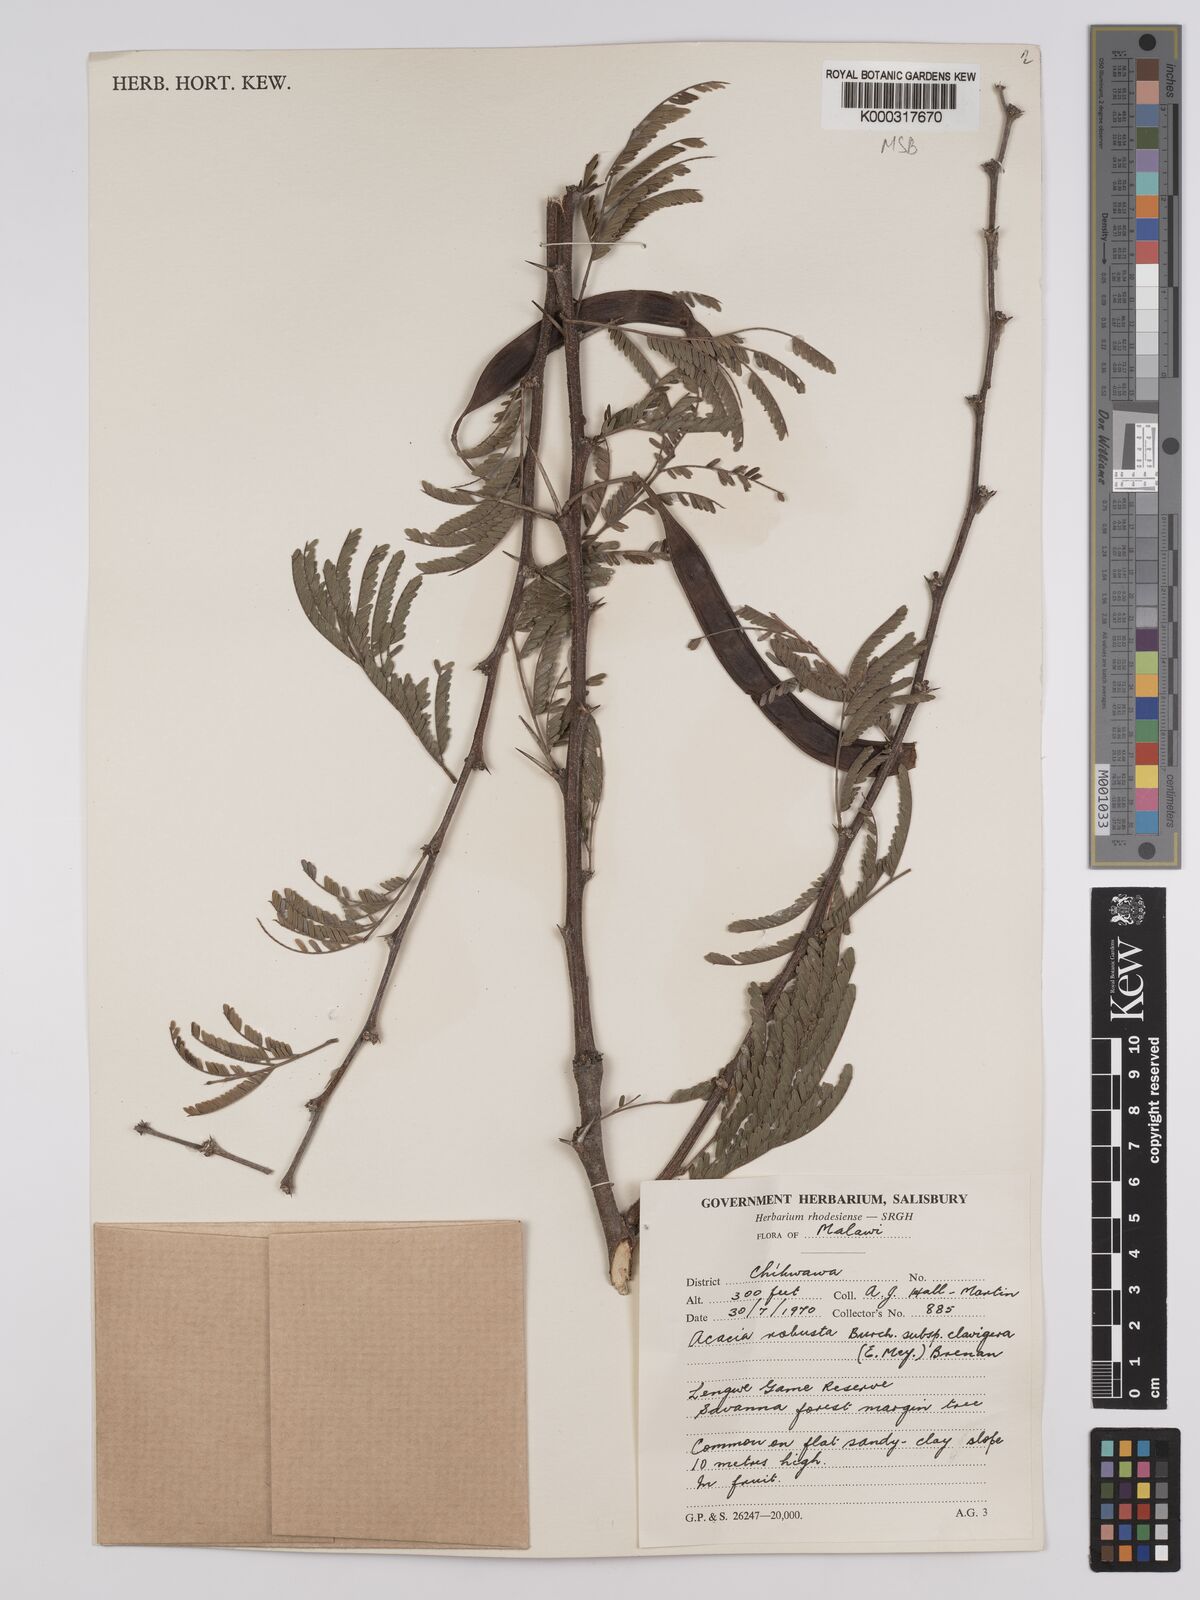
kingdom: Plantae
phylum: Tracheophyta
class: Magnoliopsida
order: Fabales
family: Fabaceae
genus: Vachellia
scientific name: Vachellia robusta
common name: Ankle thorn
